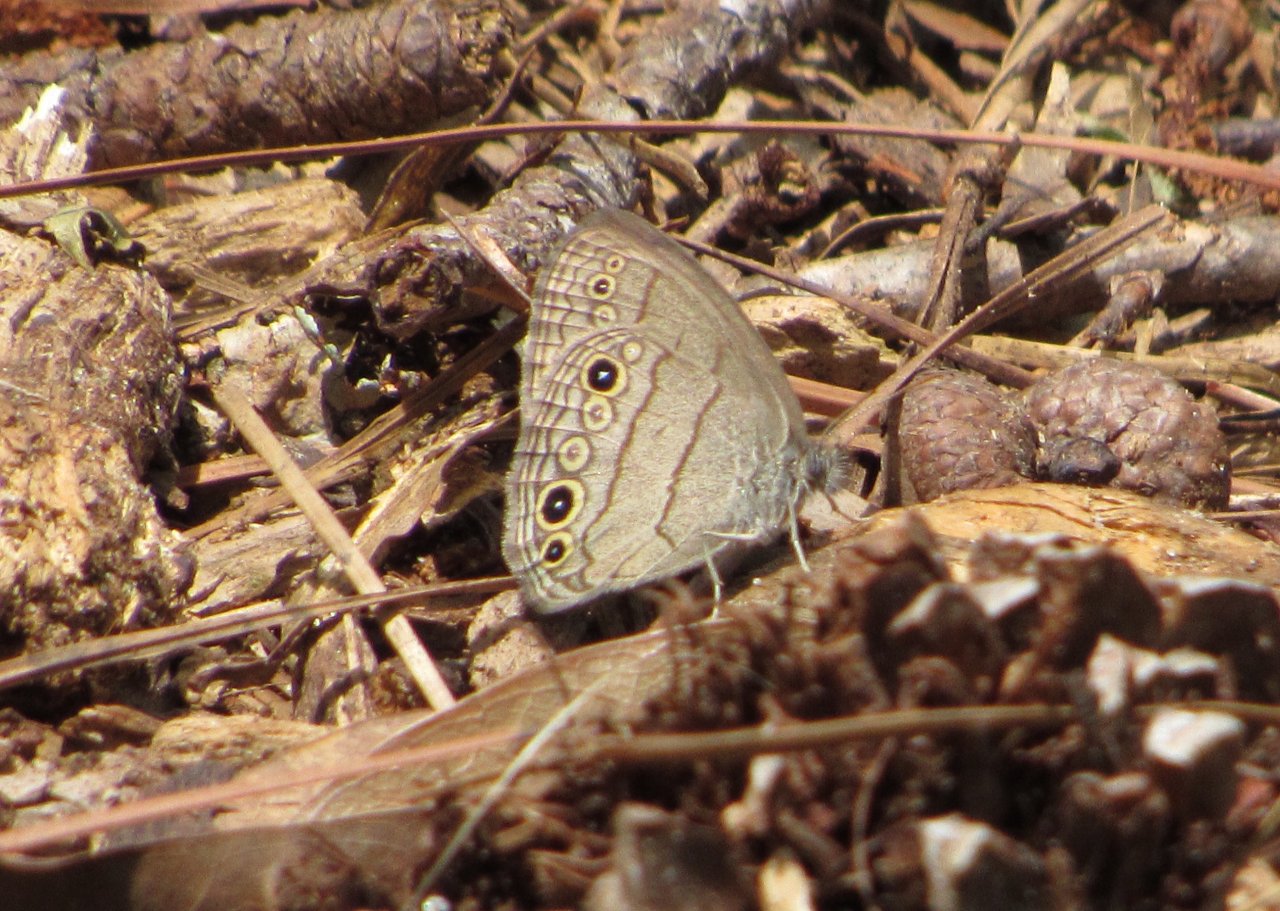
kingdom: Animalia
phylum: Arthropoda
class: Insecta
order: Lepidoptera
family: Nymphalidae
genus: Hermeuptychia
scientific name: Hermeuptychia hermes
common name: Carolina Satyr
